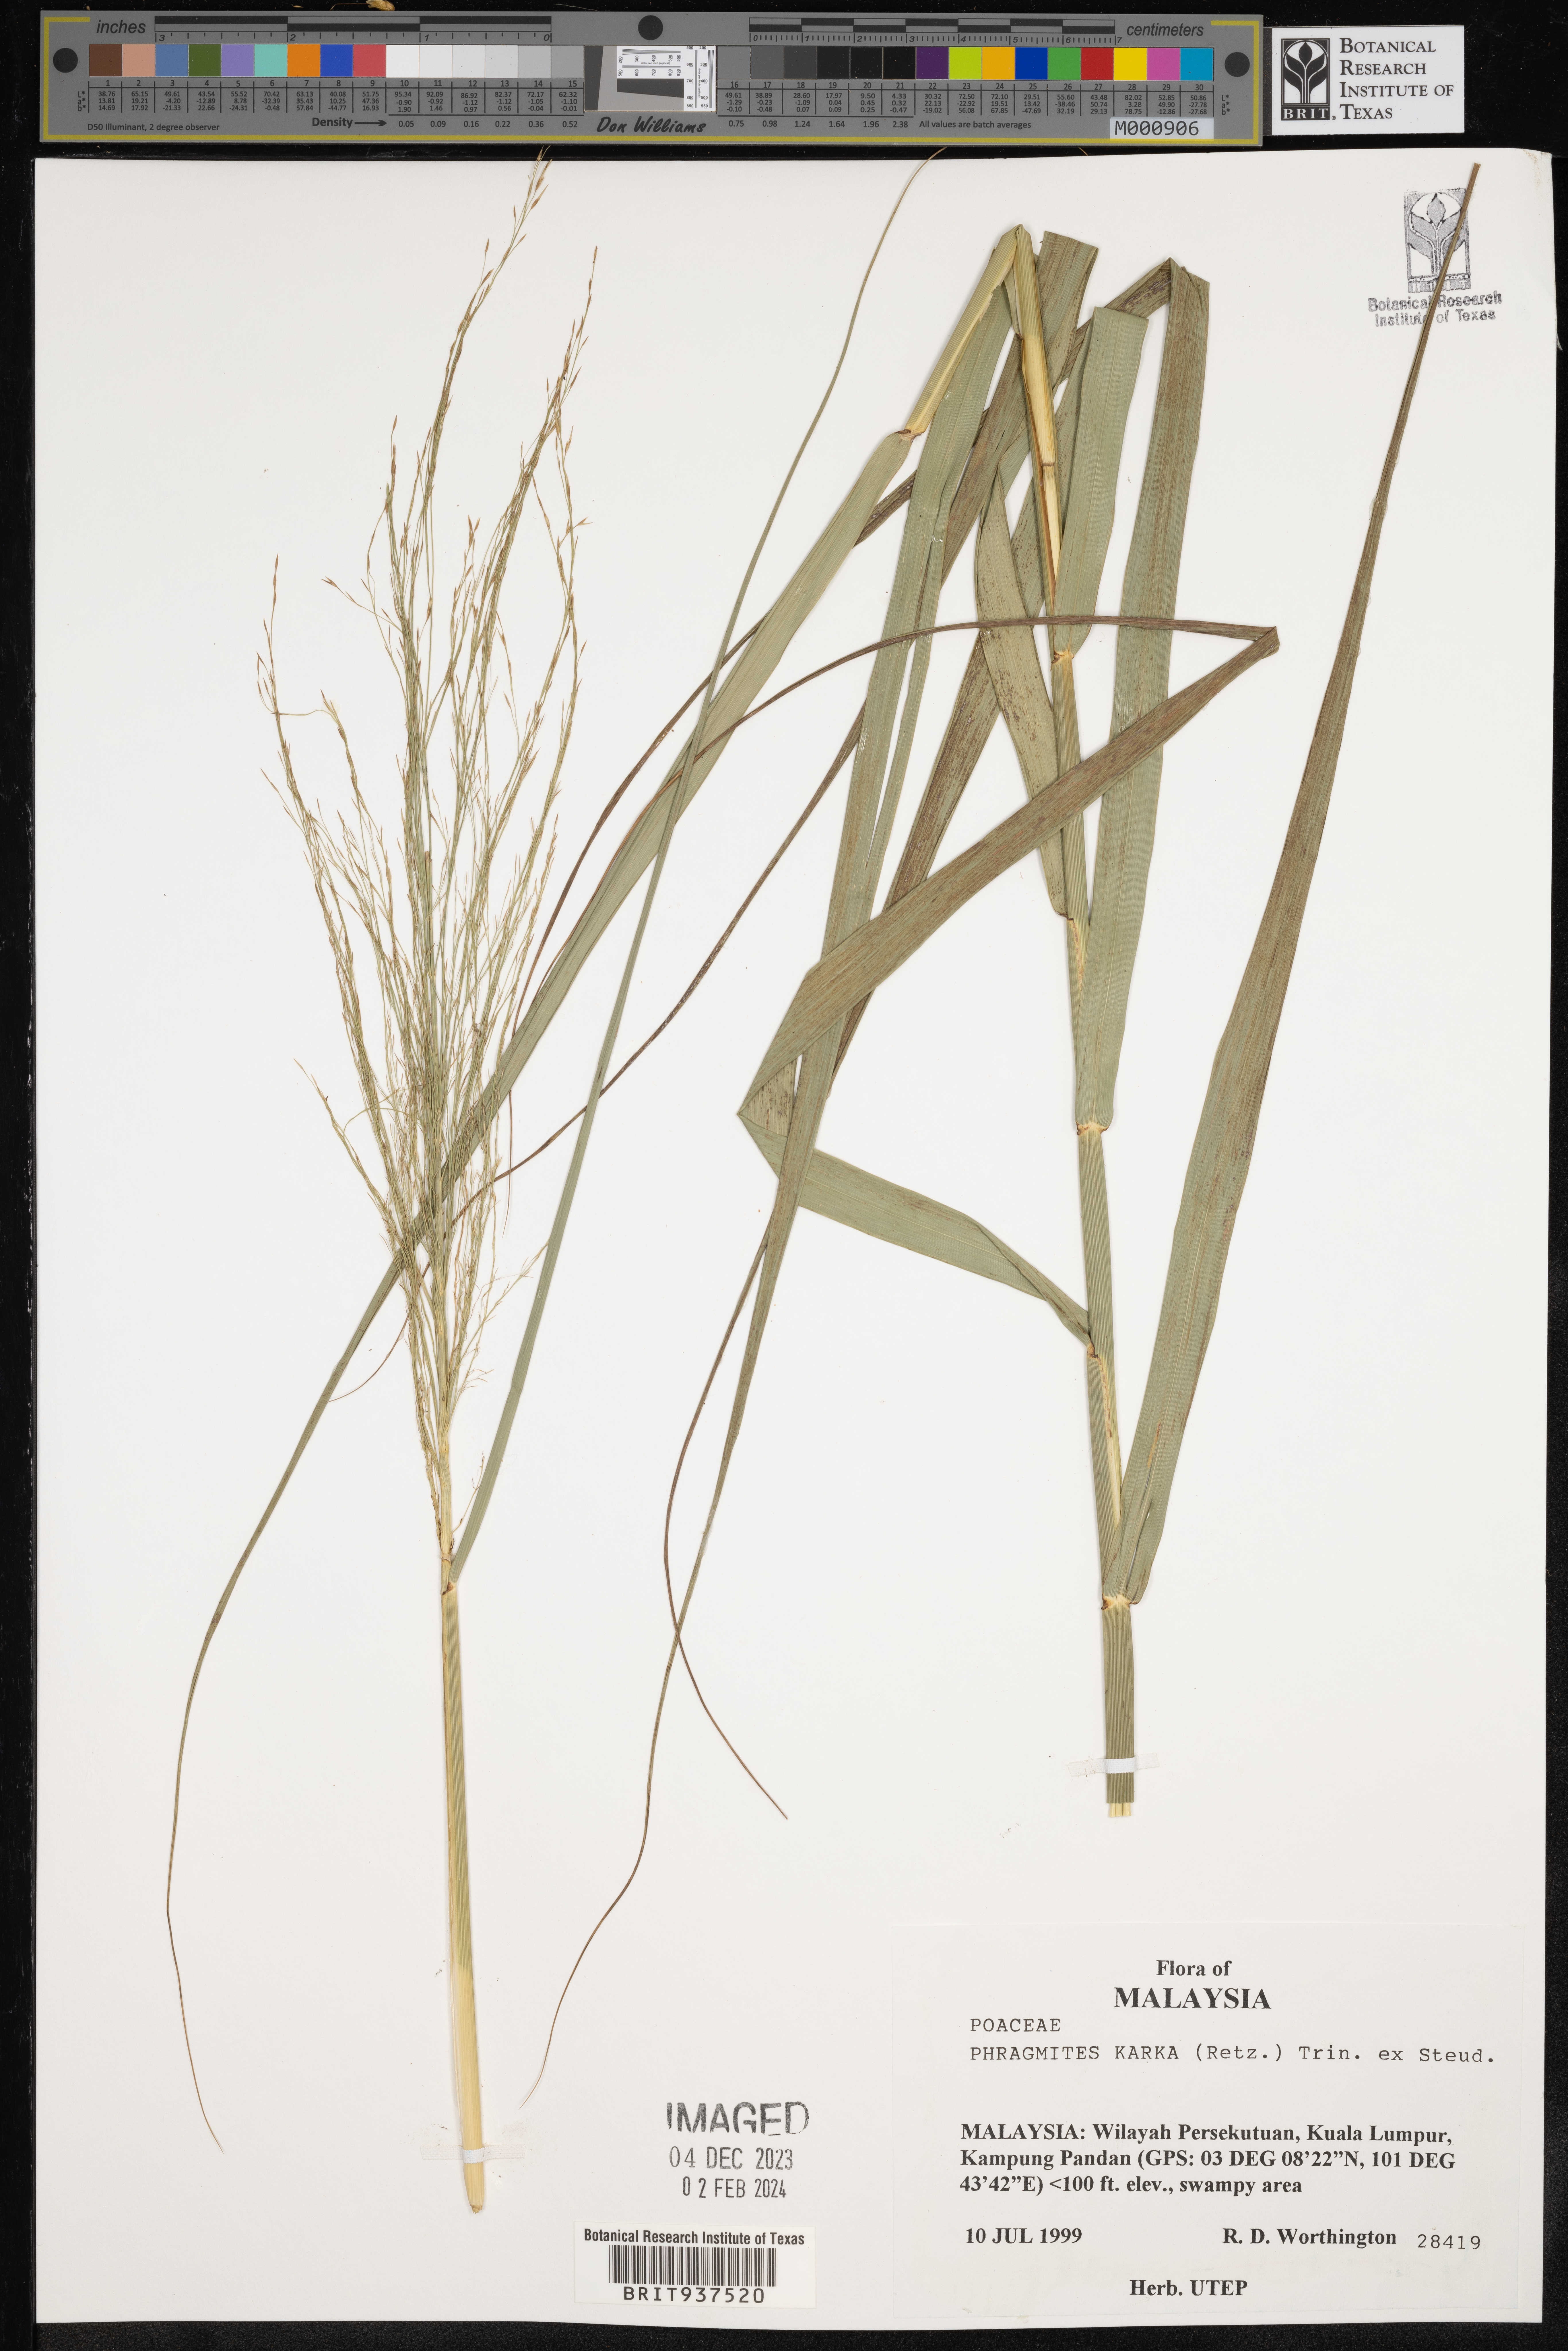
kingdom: Plantae
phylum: Tracheophyta
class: Liliopsida
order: Poales
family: Poaceae
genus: Phragmites
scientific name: Phragmites
